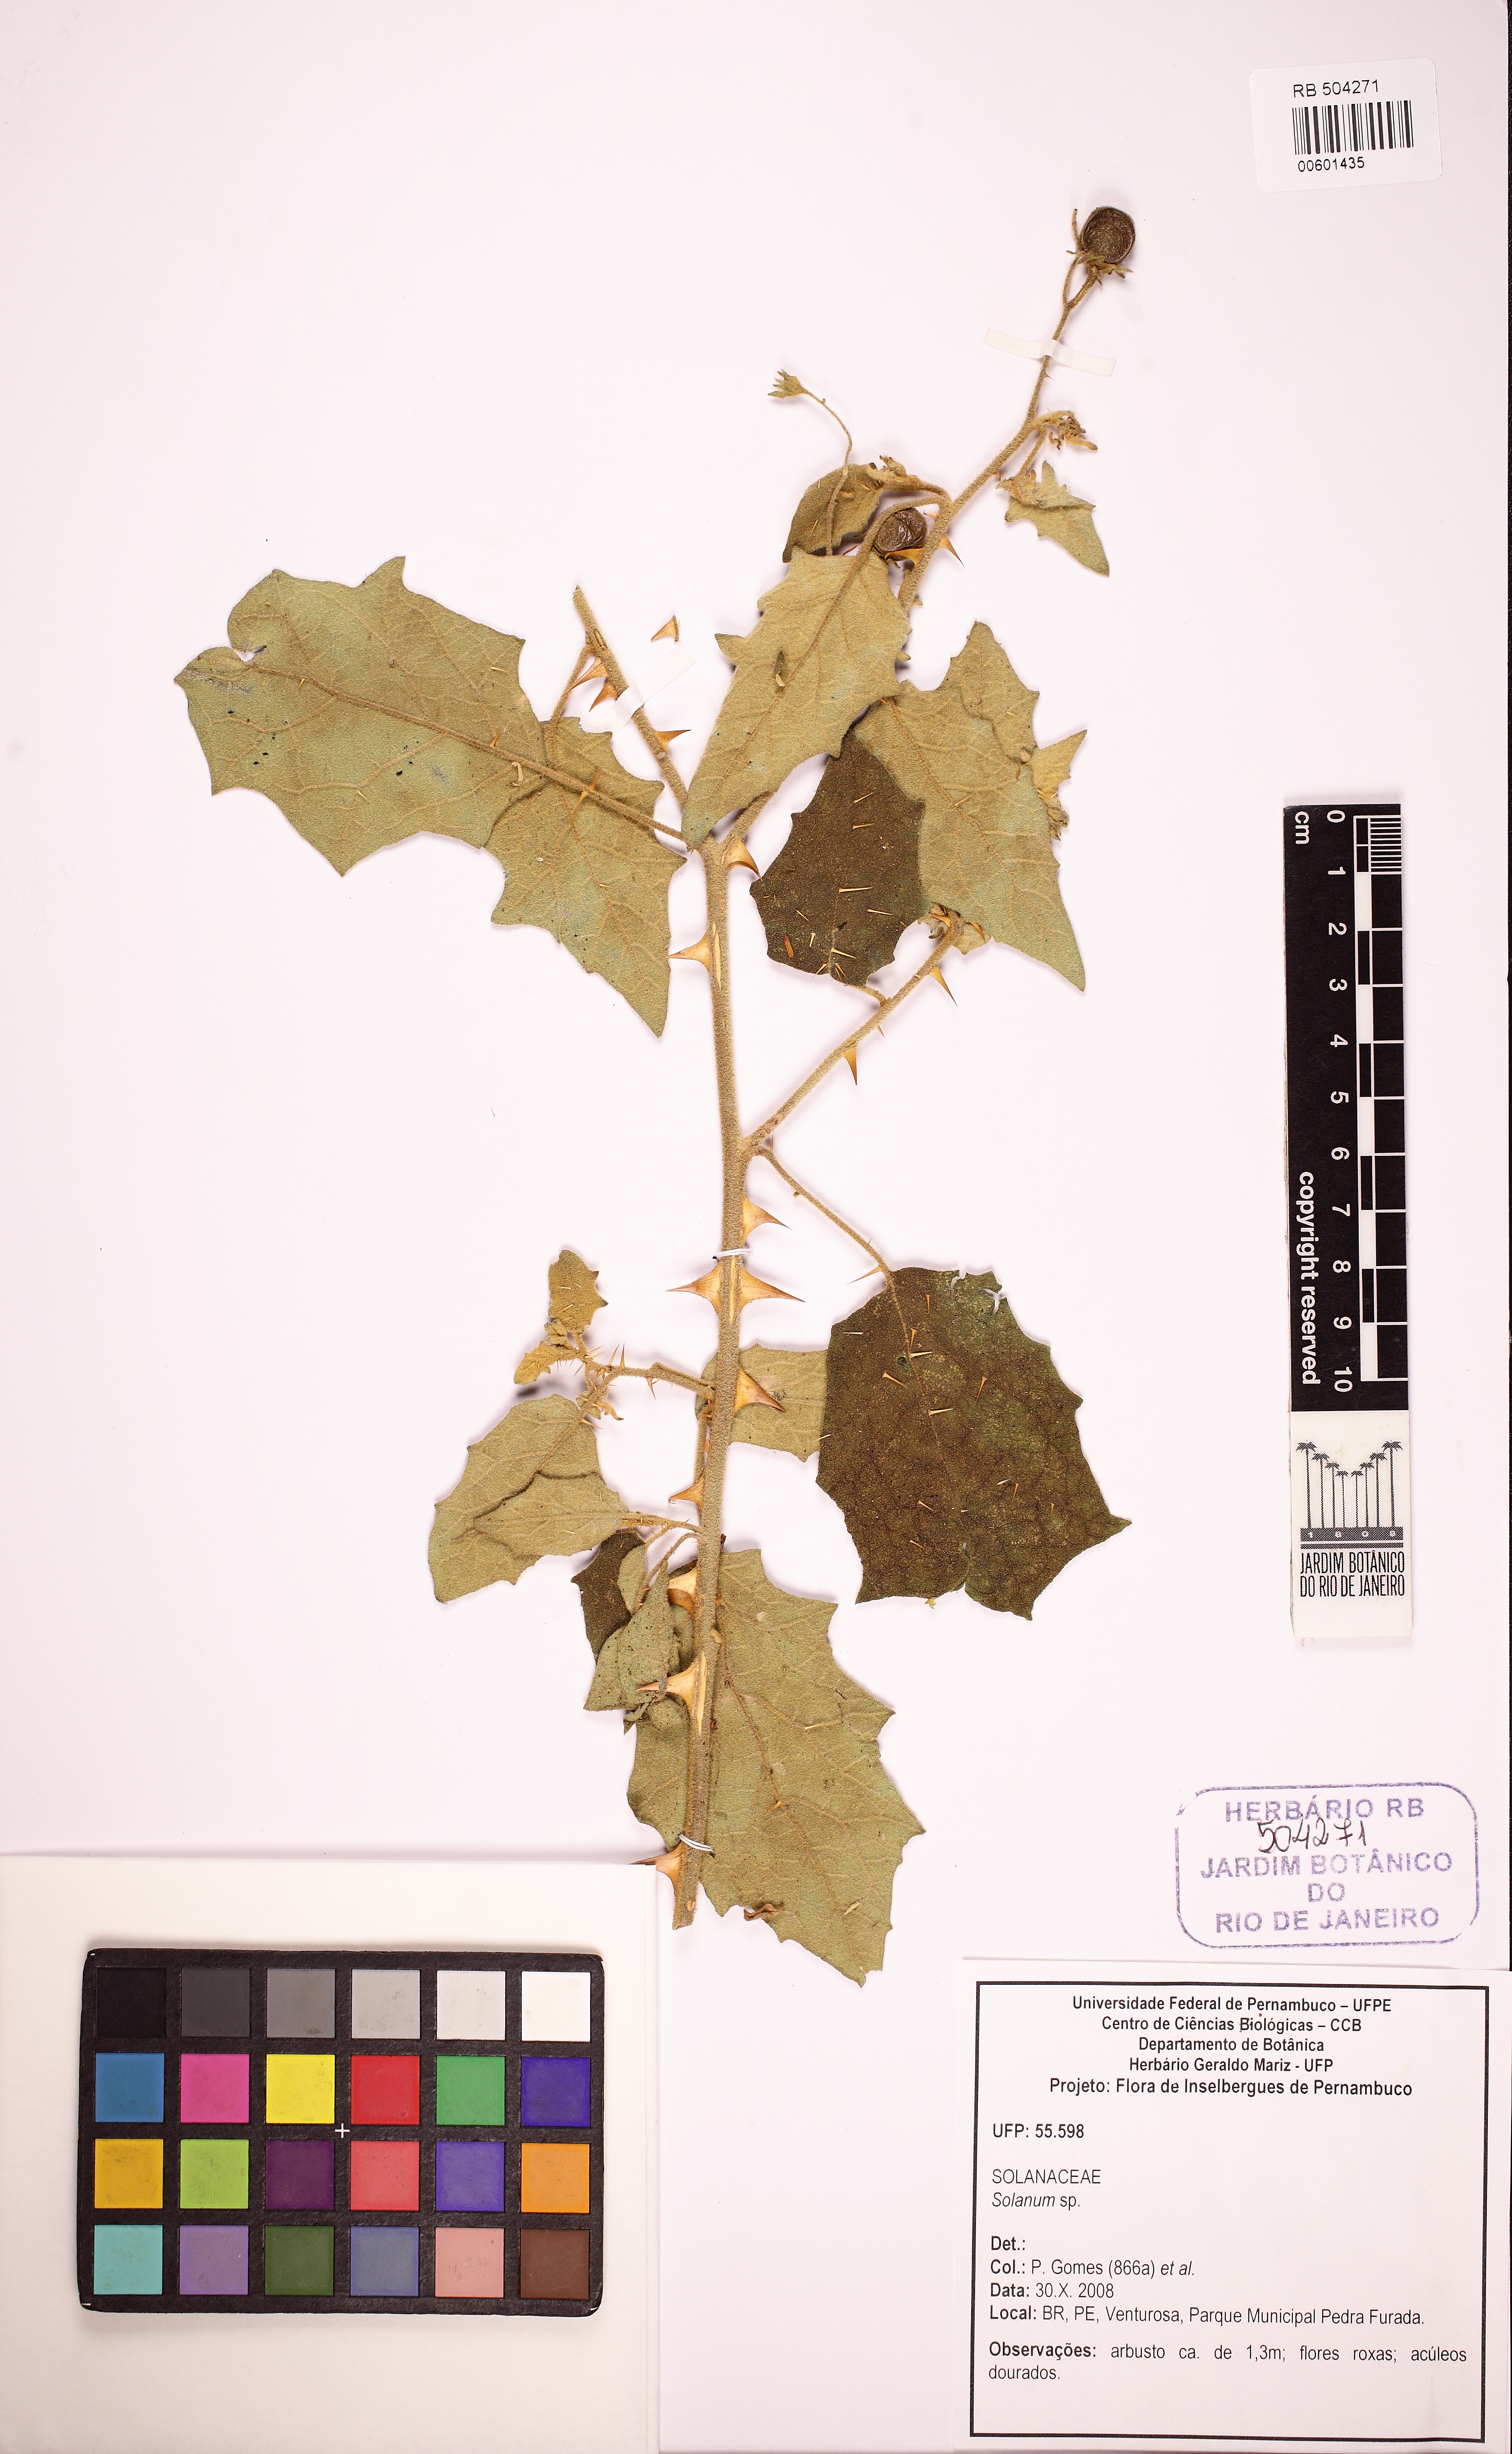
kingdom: Plantae
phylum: Tracheophyta
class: Magnoliopsida
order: Solanales
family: Solanaceae
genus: Solanum
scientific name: Solanum jabrense
